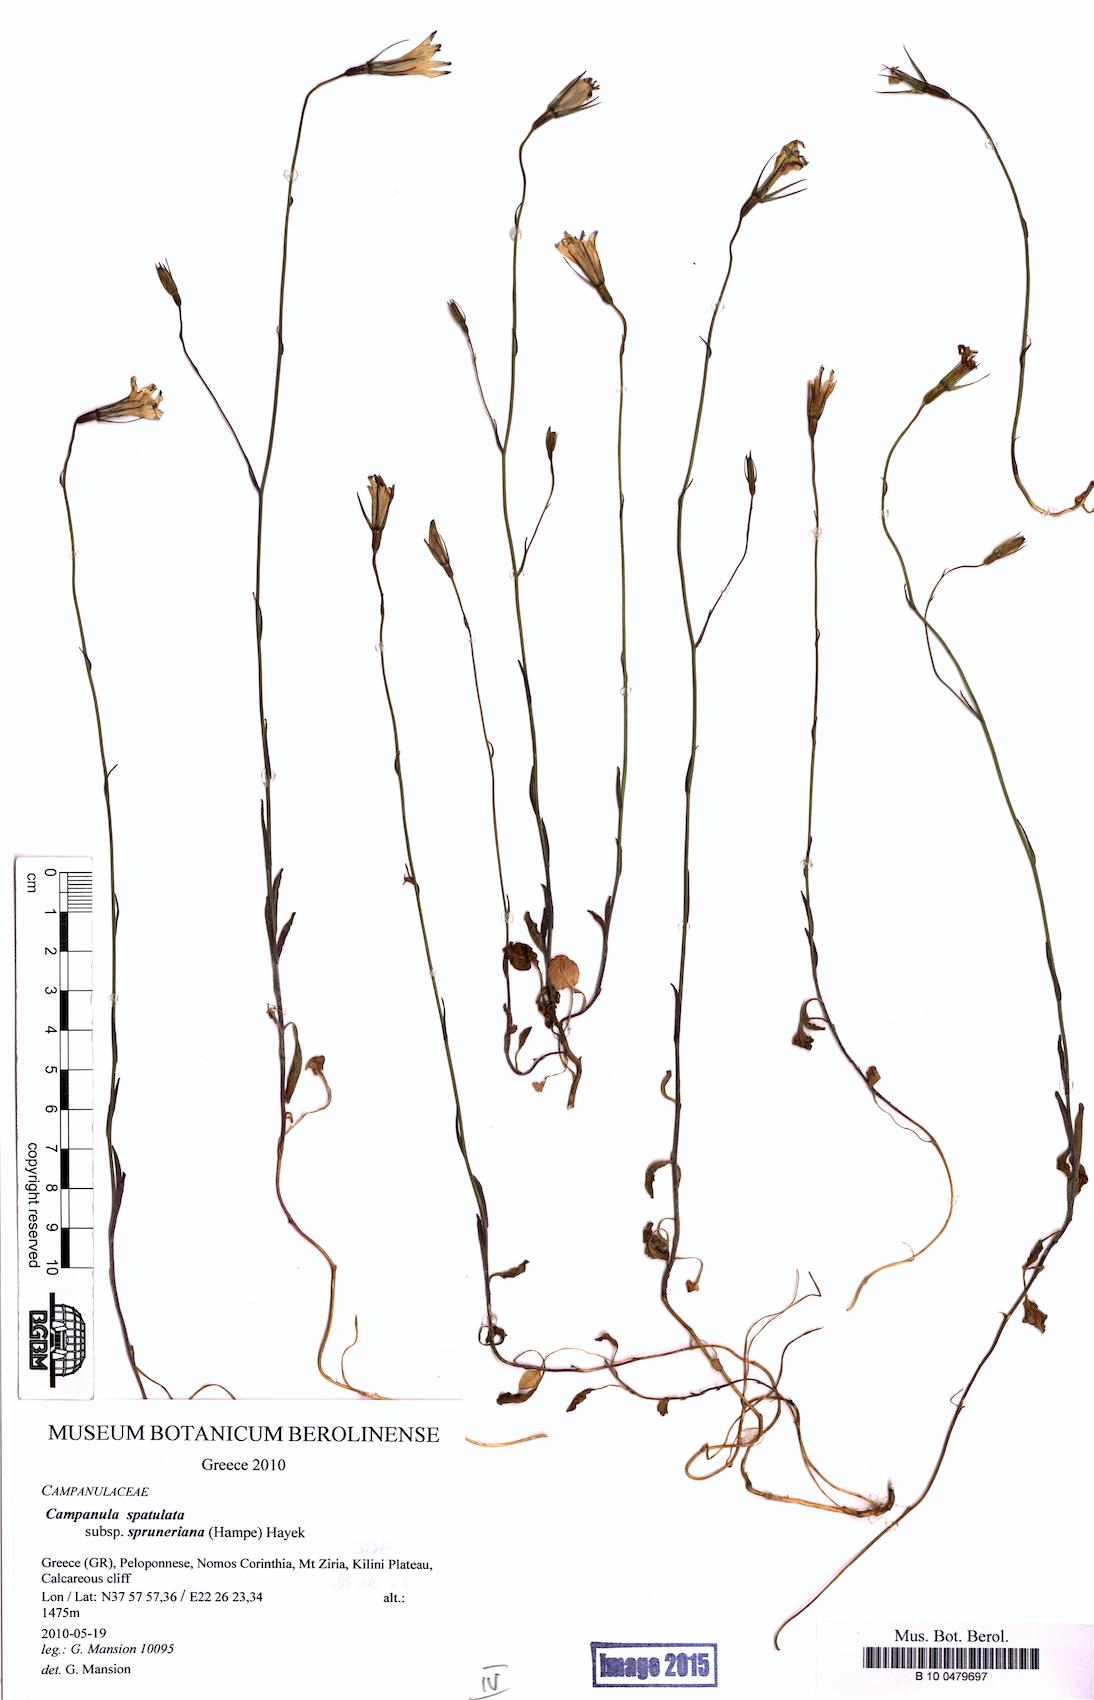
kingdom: Plantae
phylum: Tracheophyta
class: Magnoliopsida
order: Asterales
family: Campanulaceae
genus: Campanula
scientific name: Campanula spatulata
